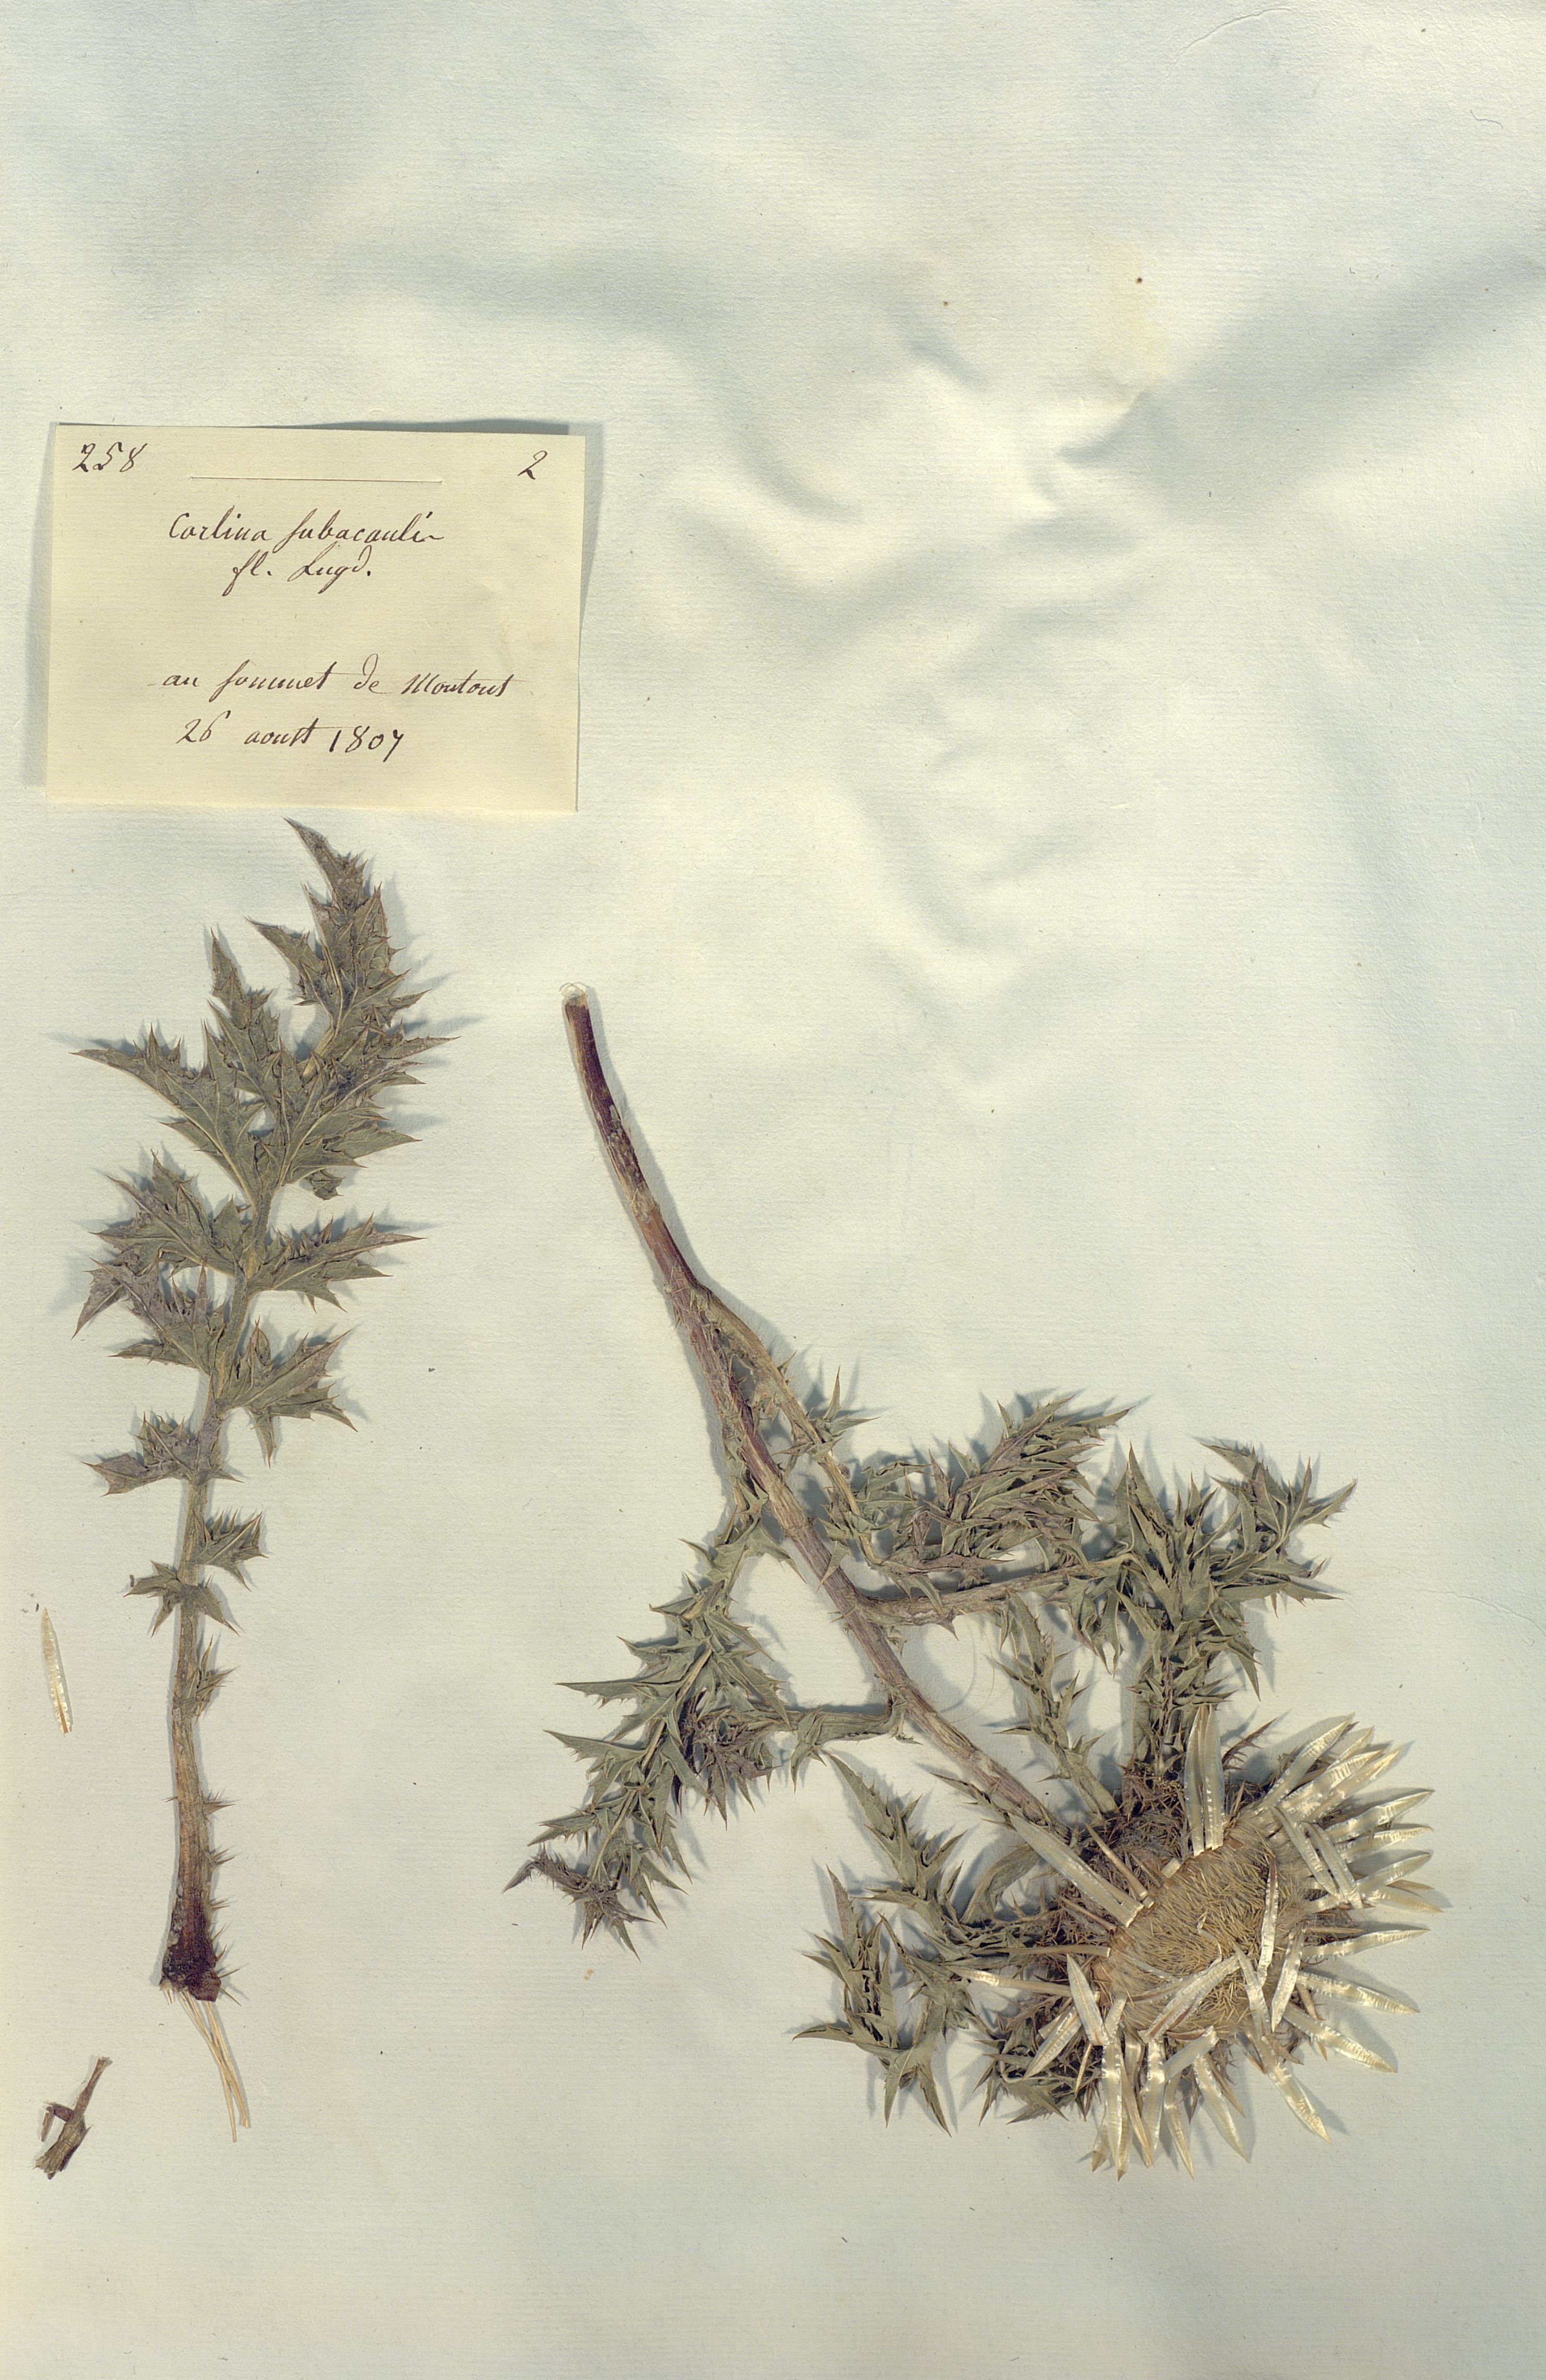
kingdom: Plantae
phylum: Tracheophyta
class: Magnoliopsida
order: Asterales
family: Asteraceae
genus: Carlina
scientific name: Carlina acaulis
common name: Stemless carline thistle
